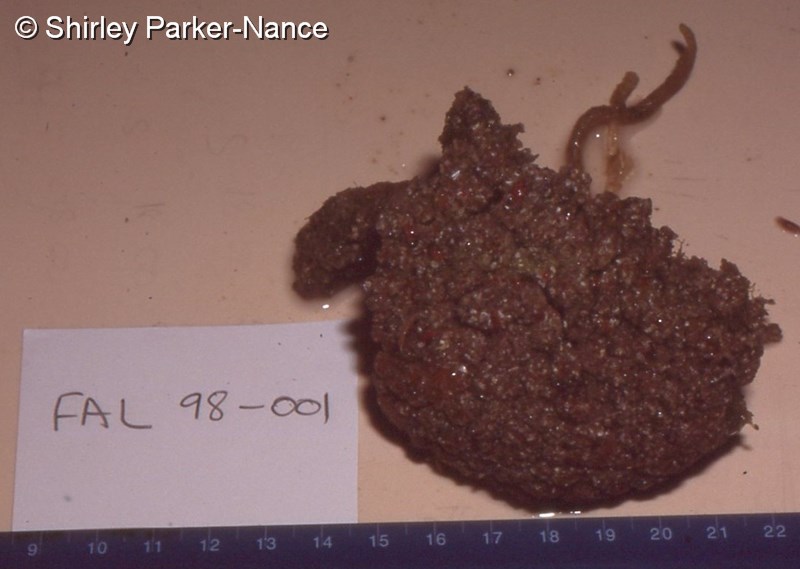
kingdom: Animalia
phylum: Chordata
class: Ascidiacea
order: Aplousobranchia
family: Polyclinidae
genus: Aplidium
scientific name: Aplidium
